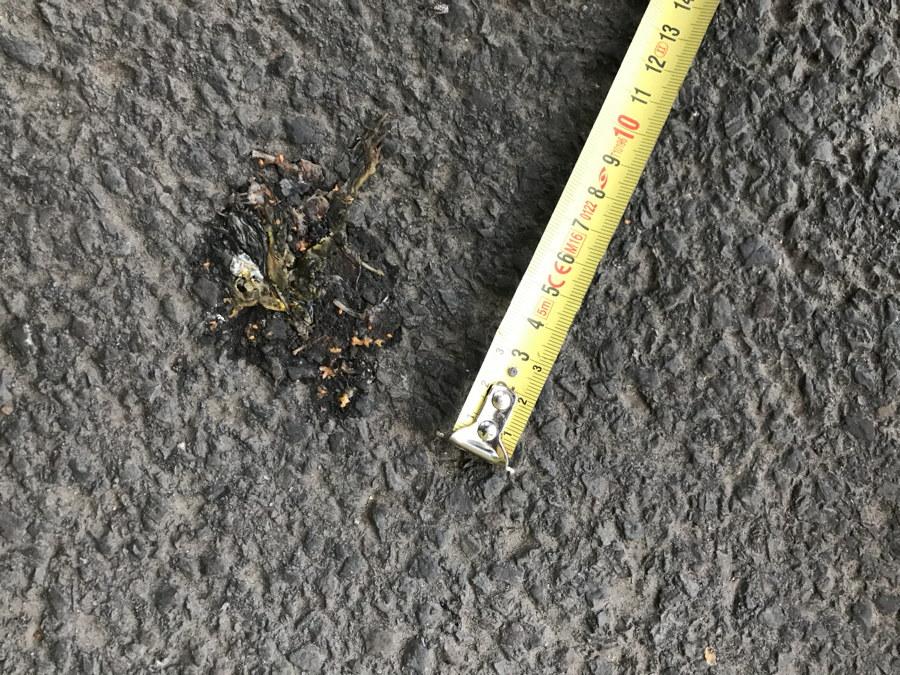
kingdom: Animalia
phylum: Chordata
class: Amphibia
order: Anura
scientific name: Anura
